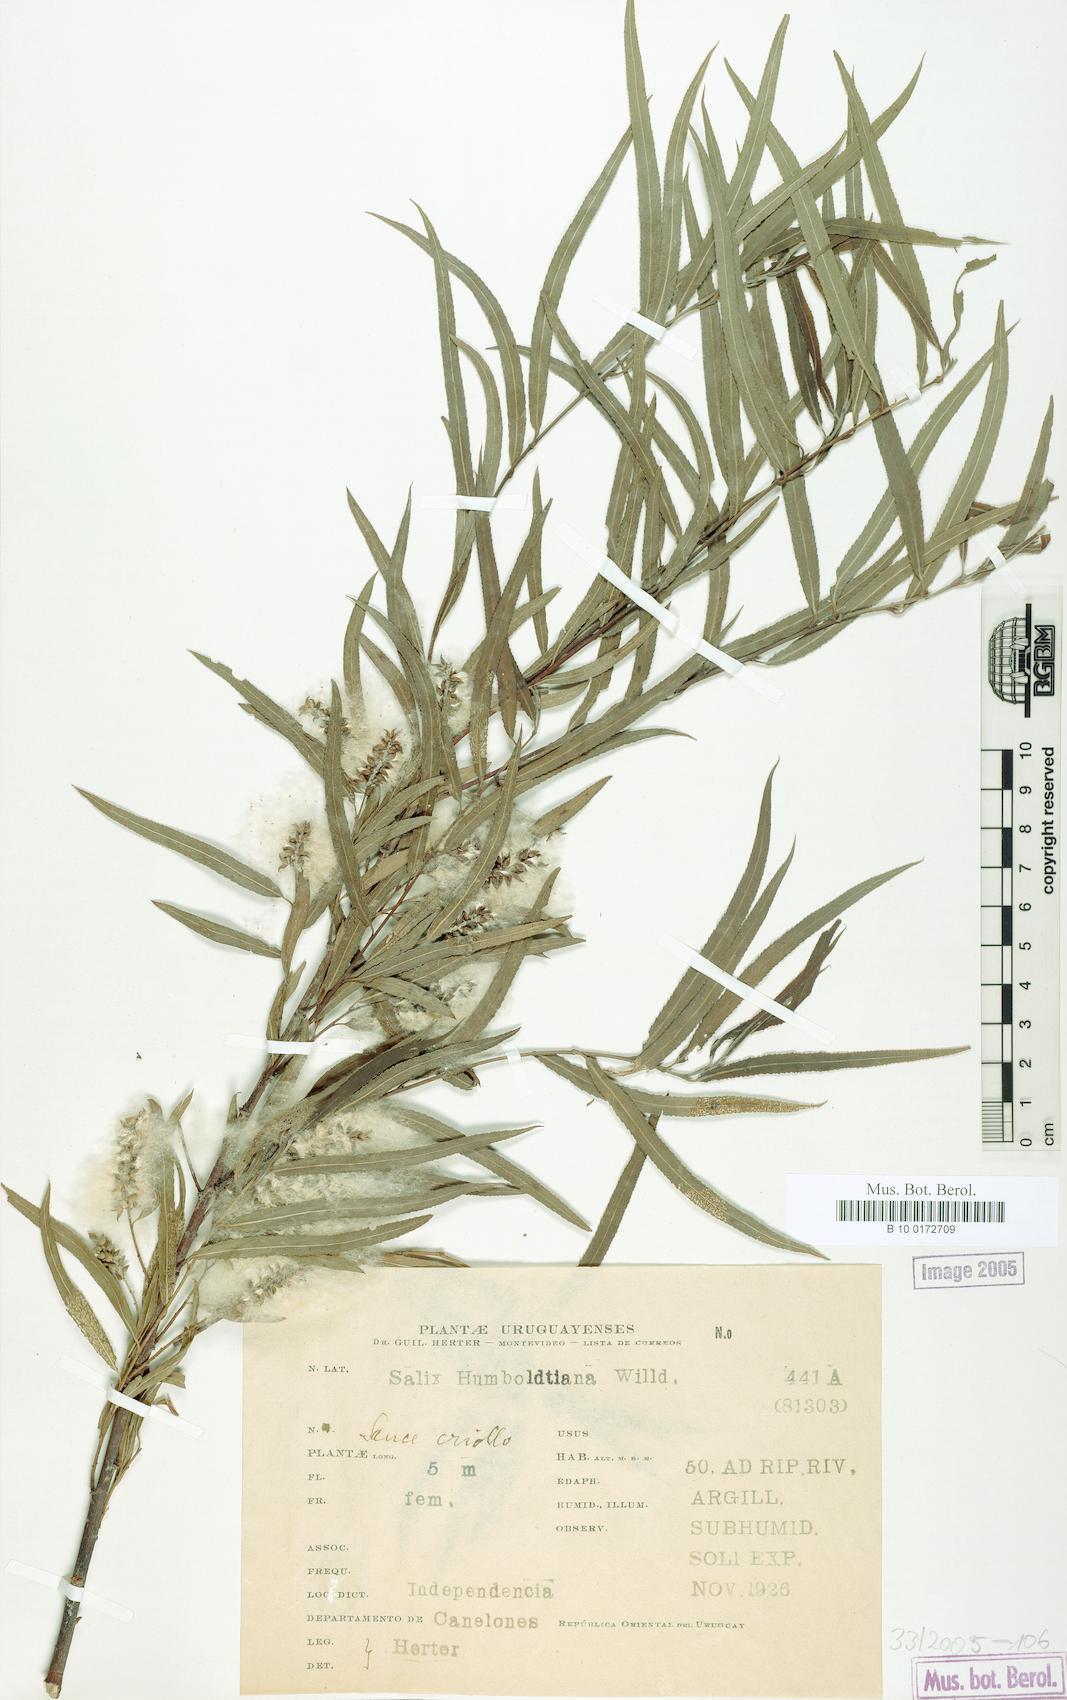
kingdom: Plantae
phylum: Tracheophyta
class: Magnoliopsida
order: Malpighiales
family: Salicaceae
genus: Salix
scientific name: Salix humboldtiana
